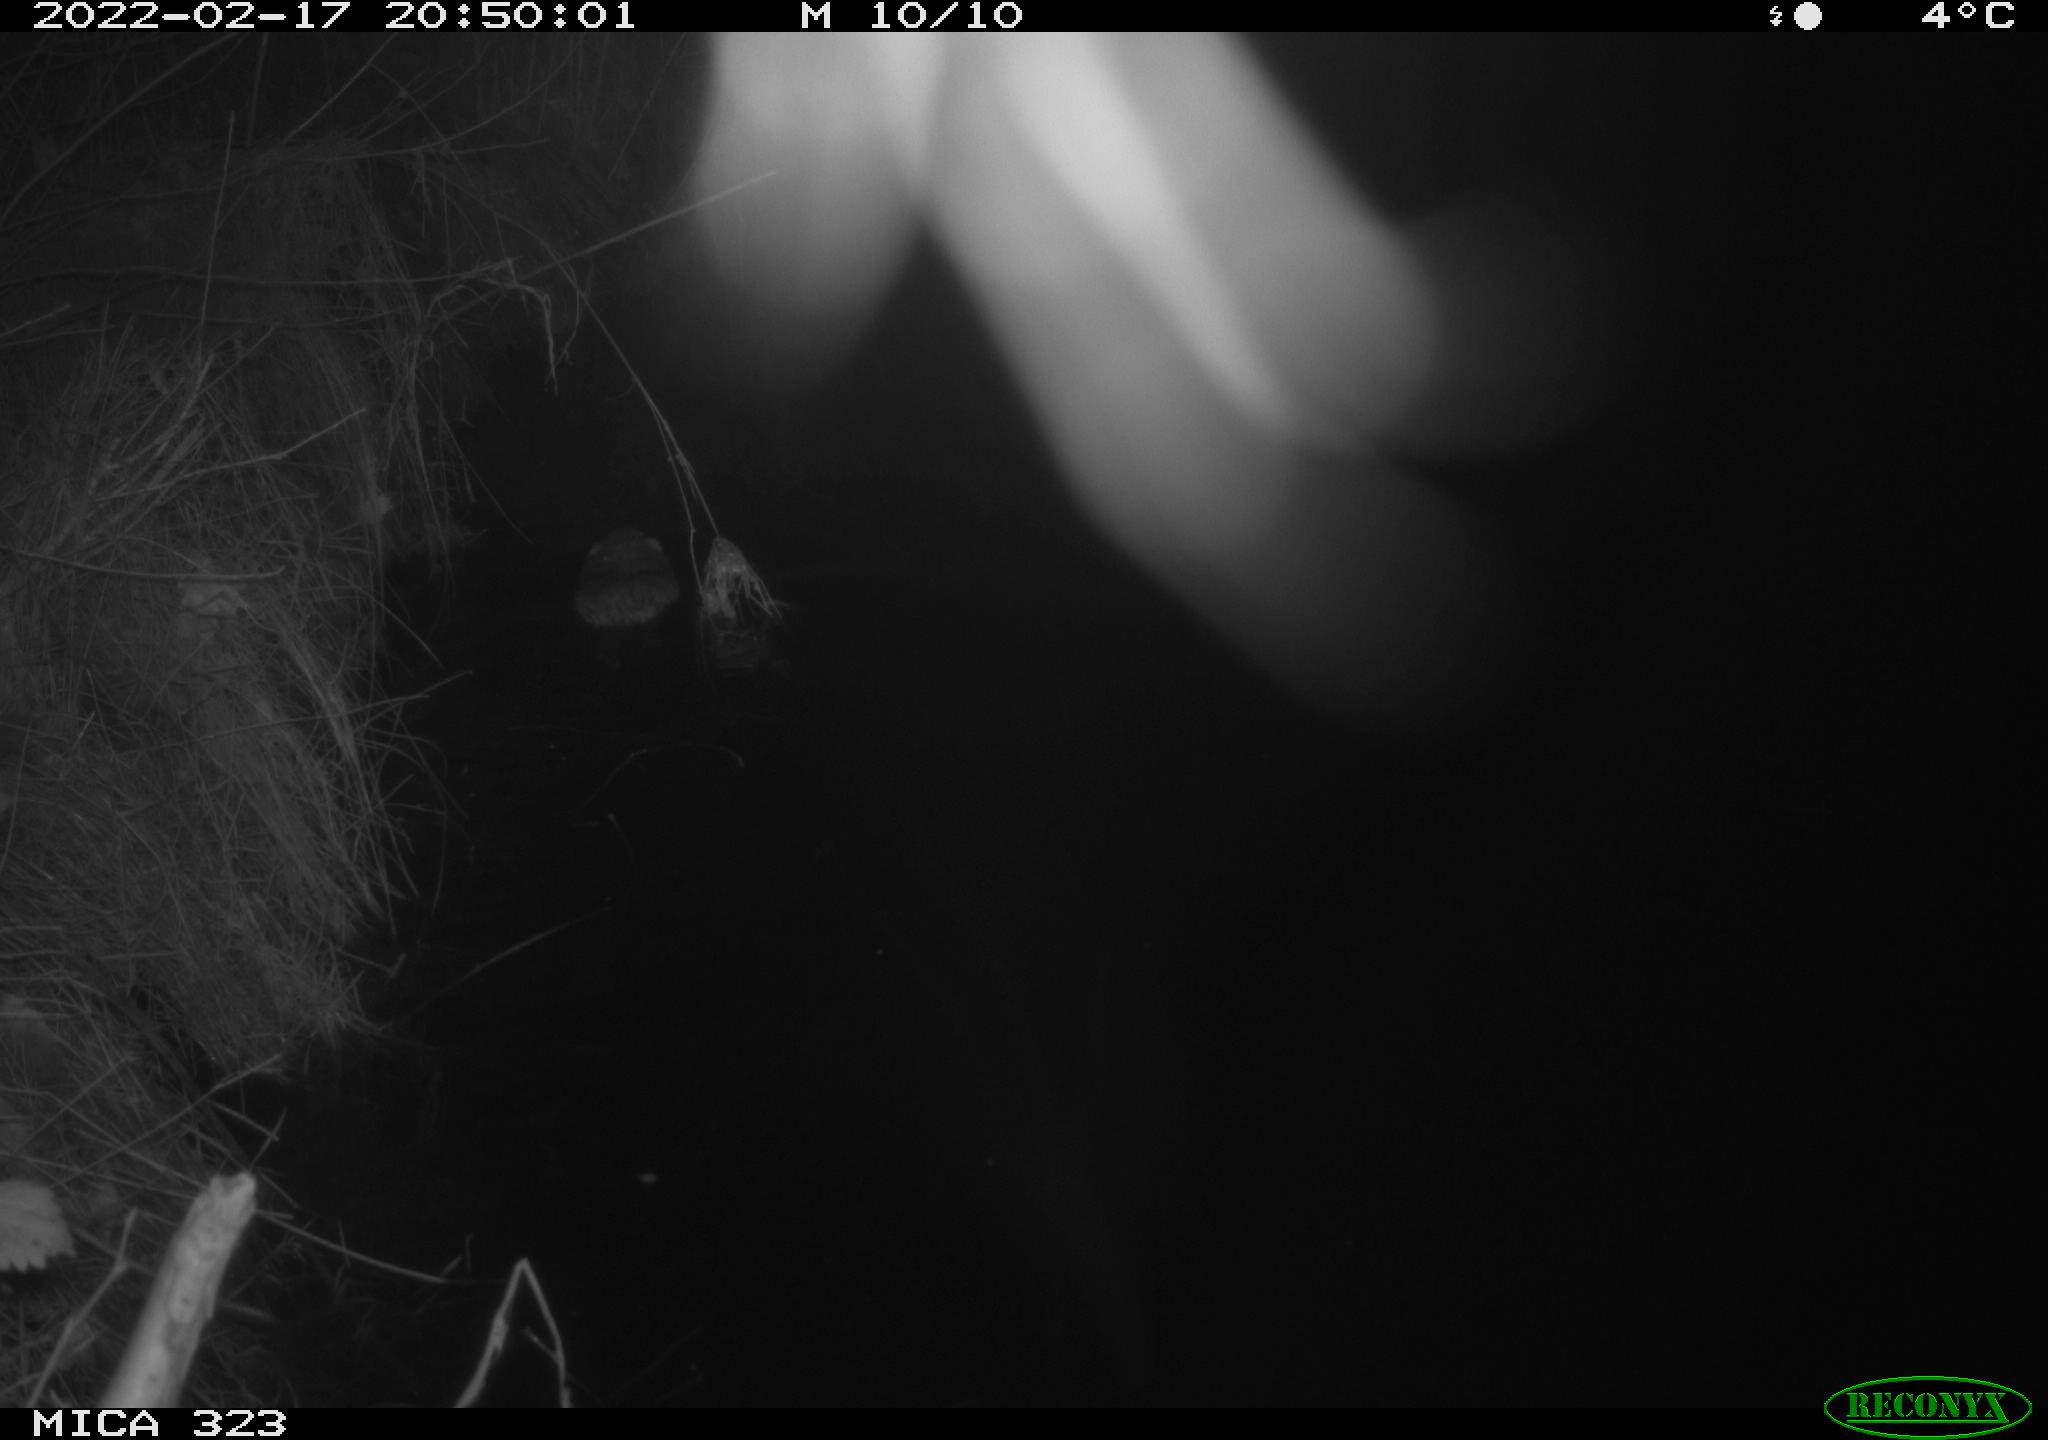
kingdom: Animalia
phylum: Chordata
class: Mammalia
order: Rodentia
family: Cricetidae
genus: Ondatra
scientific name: Ondatra zibethicus
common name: Muskrat
